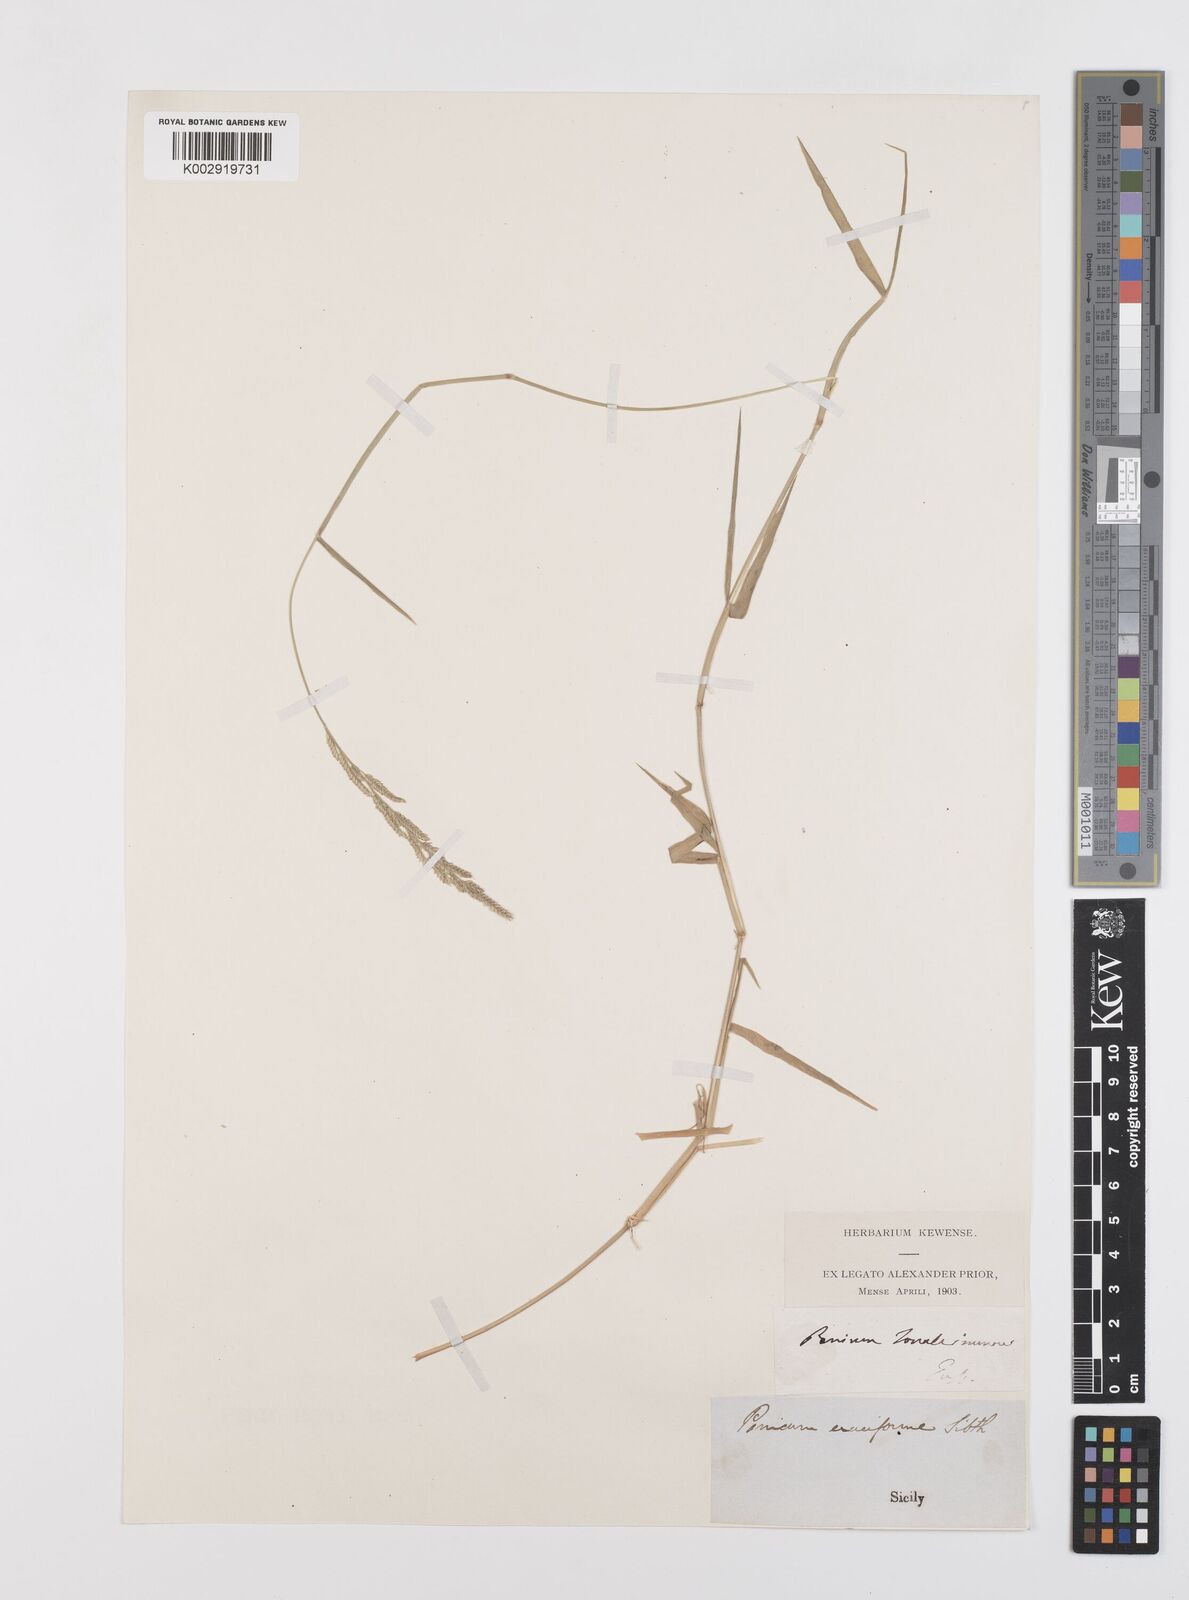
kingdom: Plantae
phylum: Tracheophyta
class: Liliopsida
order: Poales
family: Poaceae
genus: Moorochloa
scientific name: Moorochloa eruciformis
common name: Sweet signalgrass
